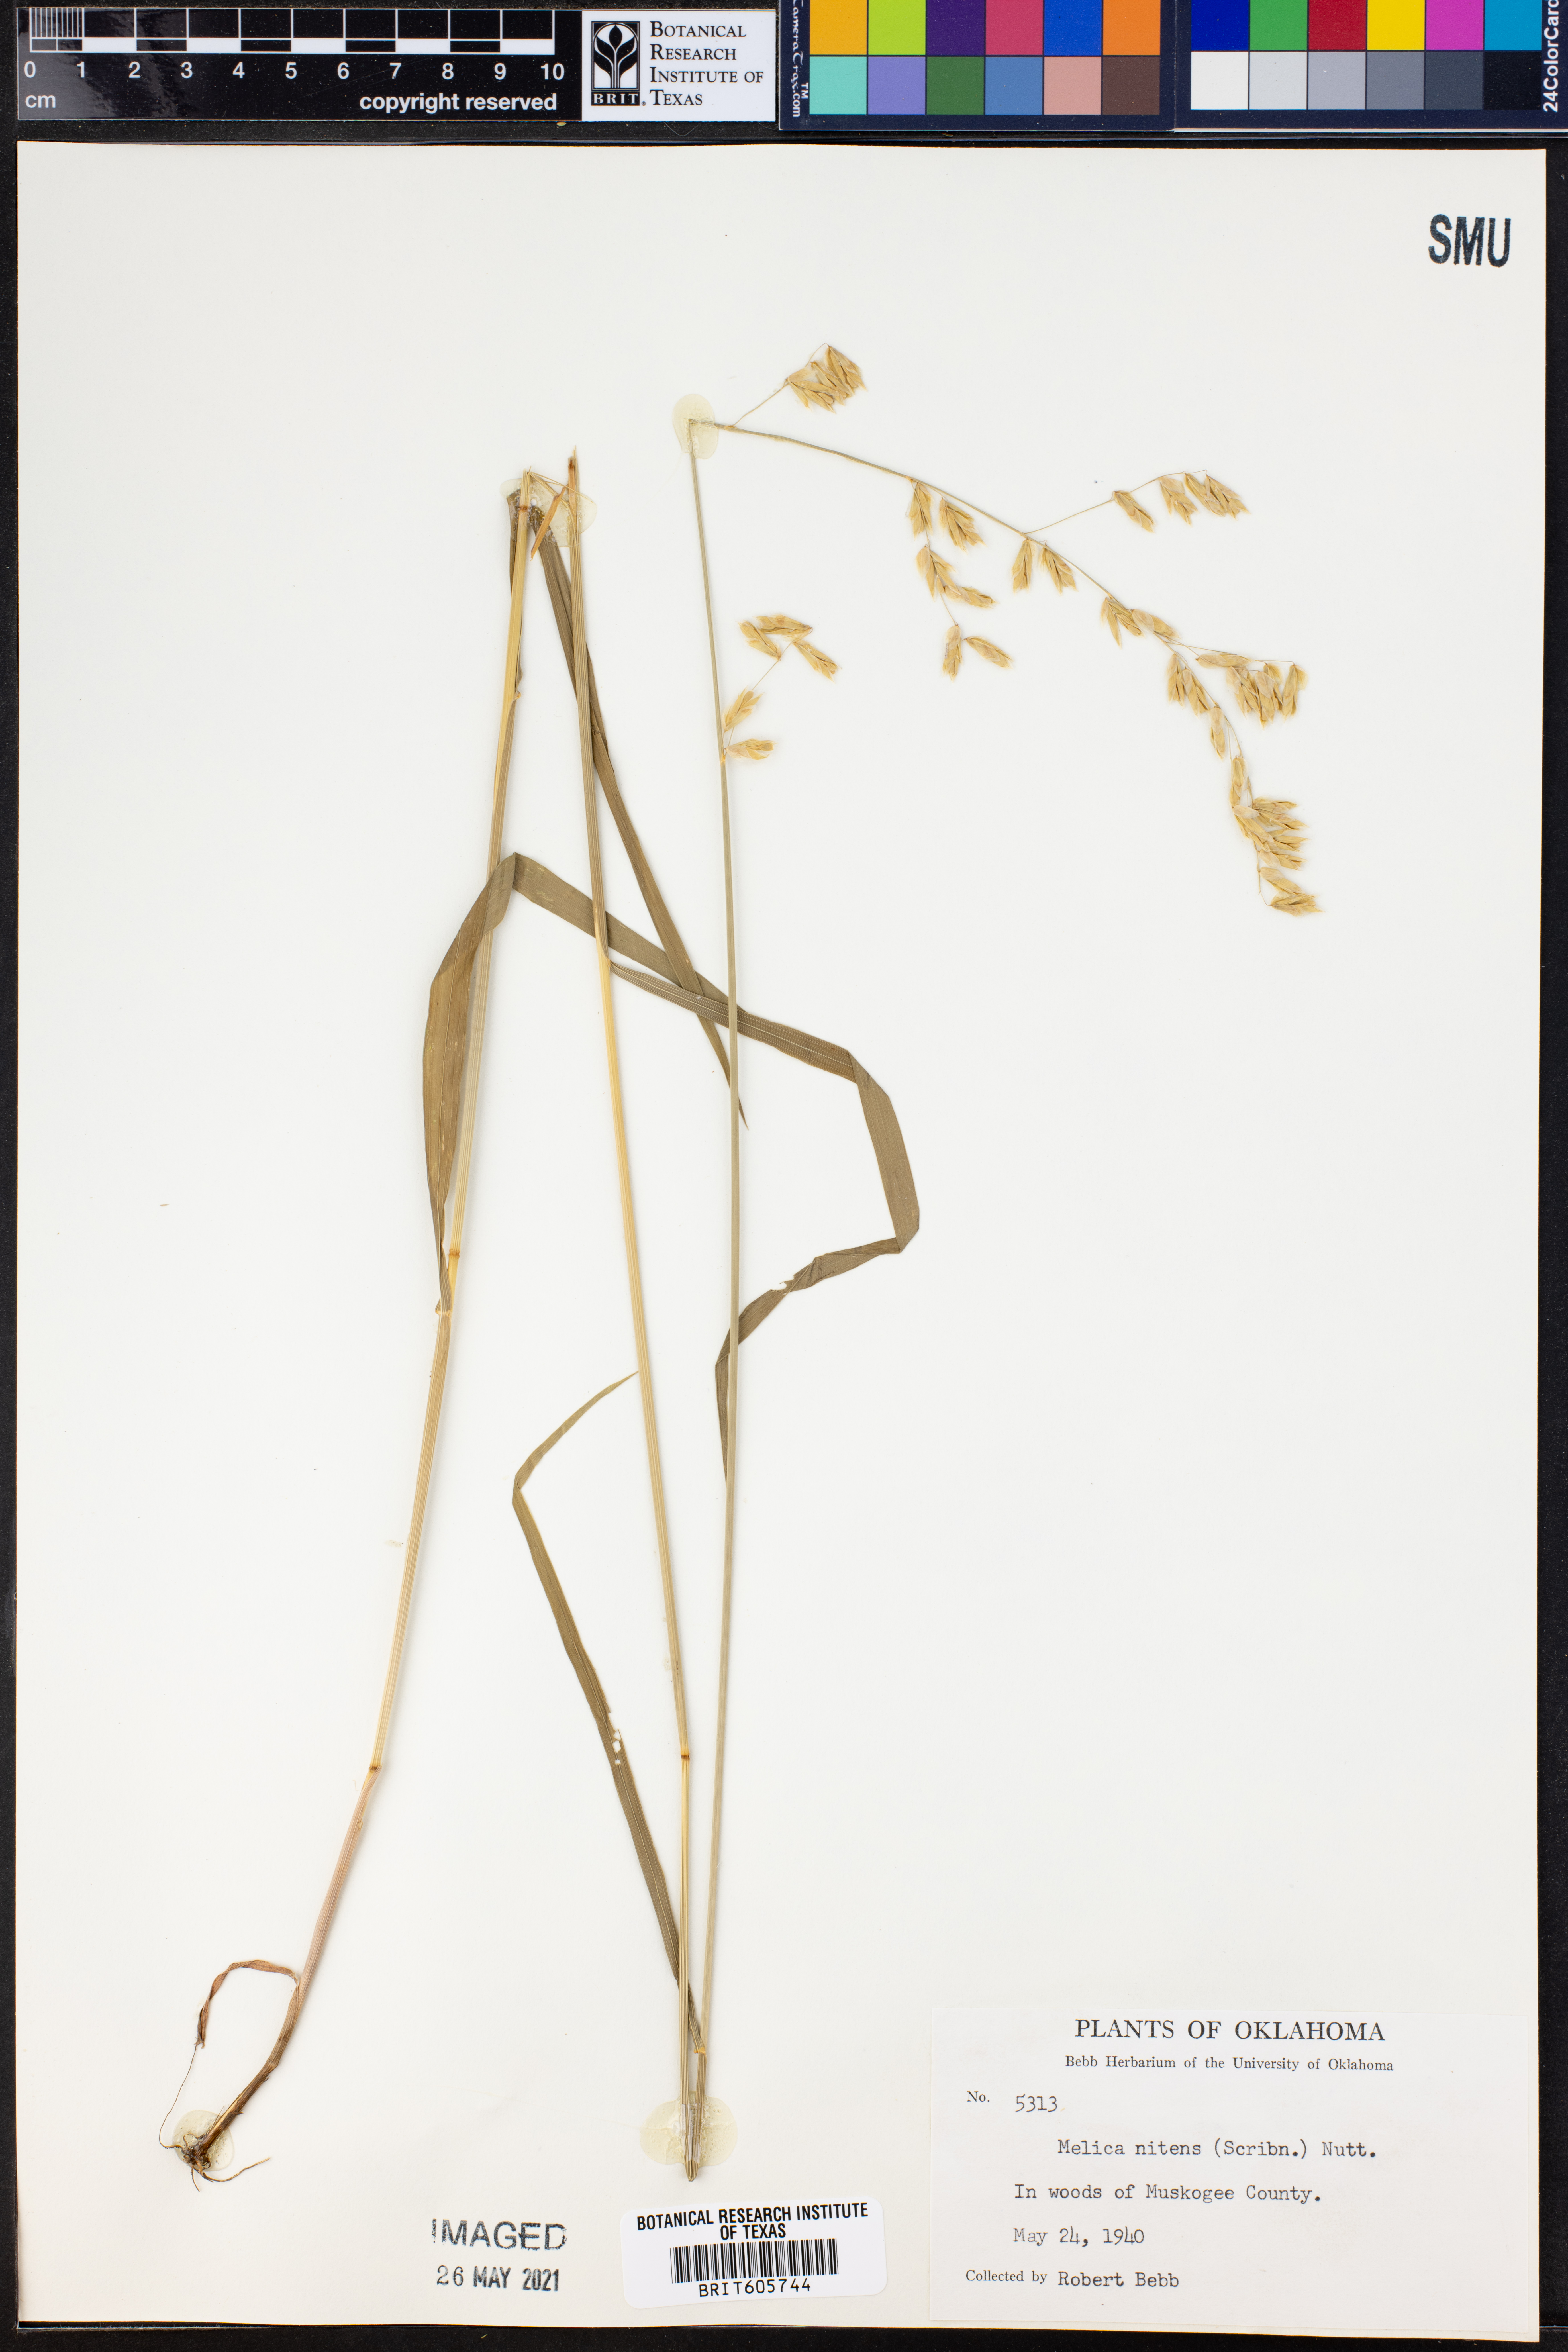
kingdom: Plantae
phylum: Tracheophyta
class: Liliopsida
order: Poales
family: Poaceae
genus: Melica
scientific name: Melica nitens
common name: Three-flower melic
